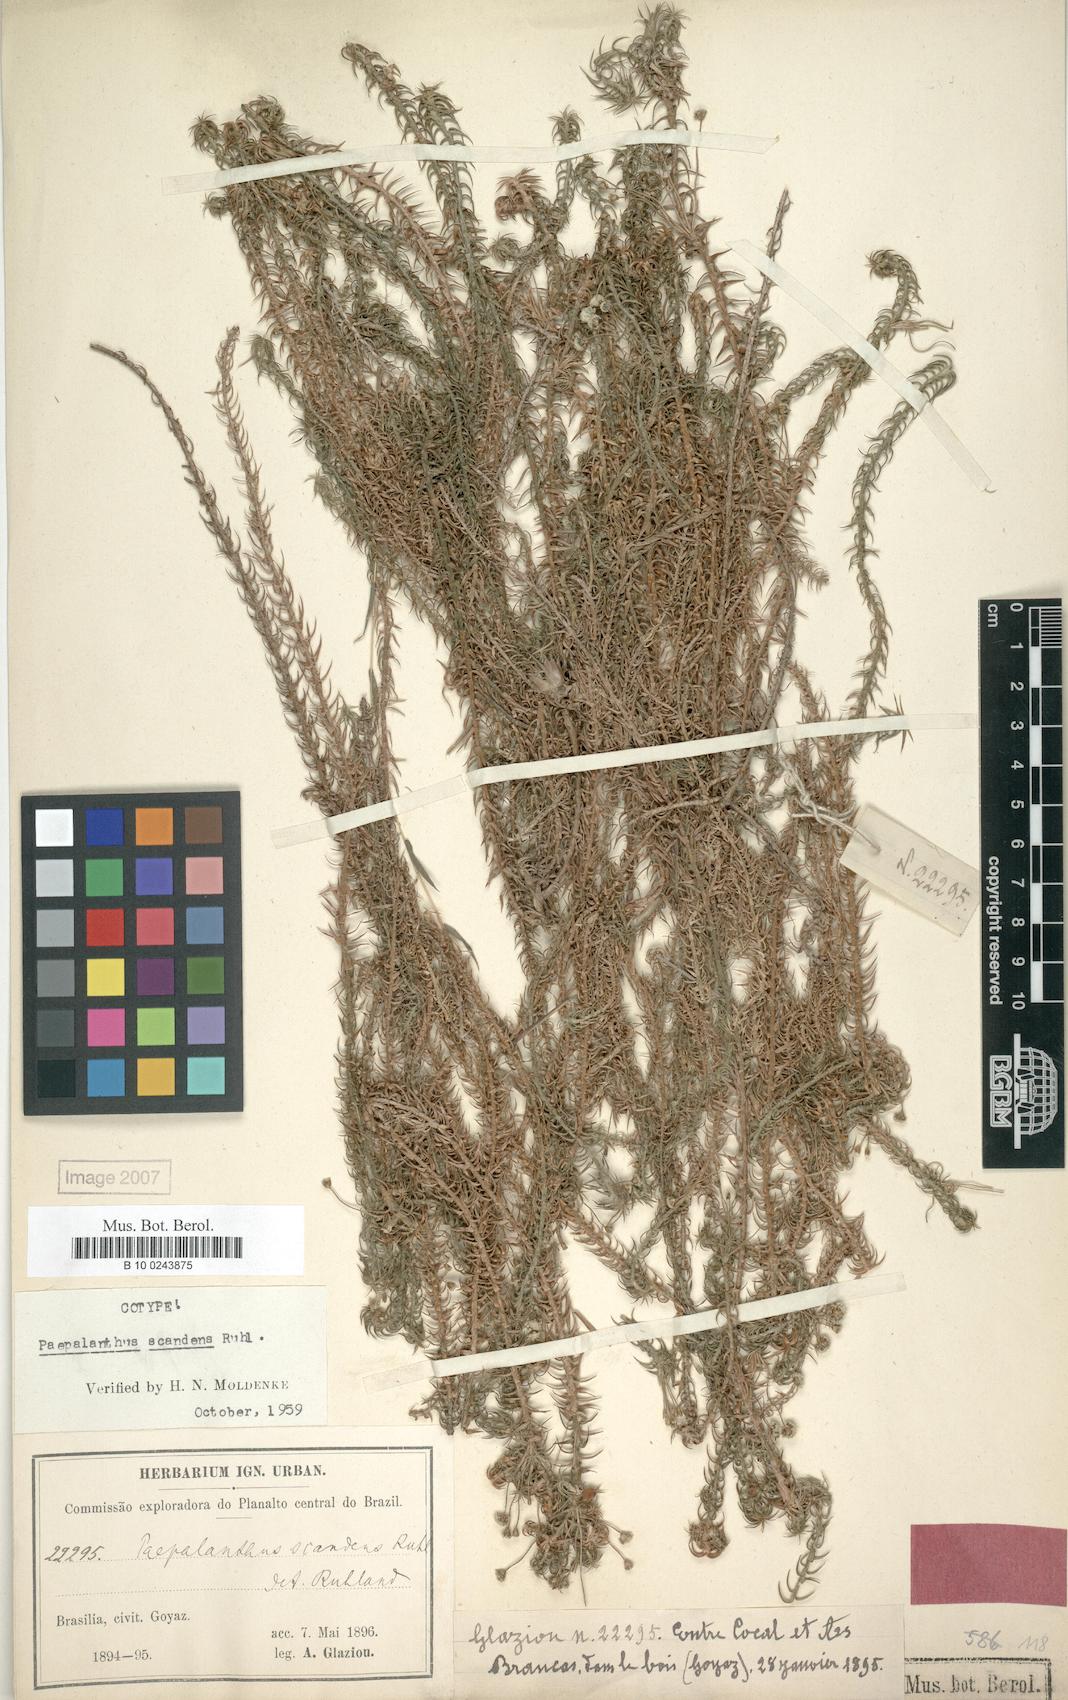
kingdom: Plantae
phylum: Tracheophyta
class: Liliopsida
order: Poales
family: Eriocaulaceae
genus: Paepalanthus
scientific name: Paepalanthus scandens
